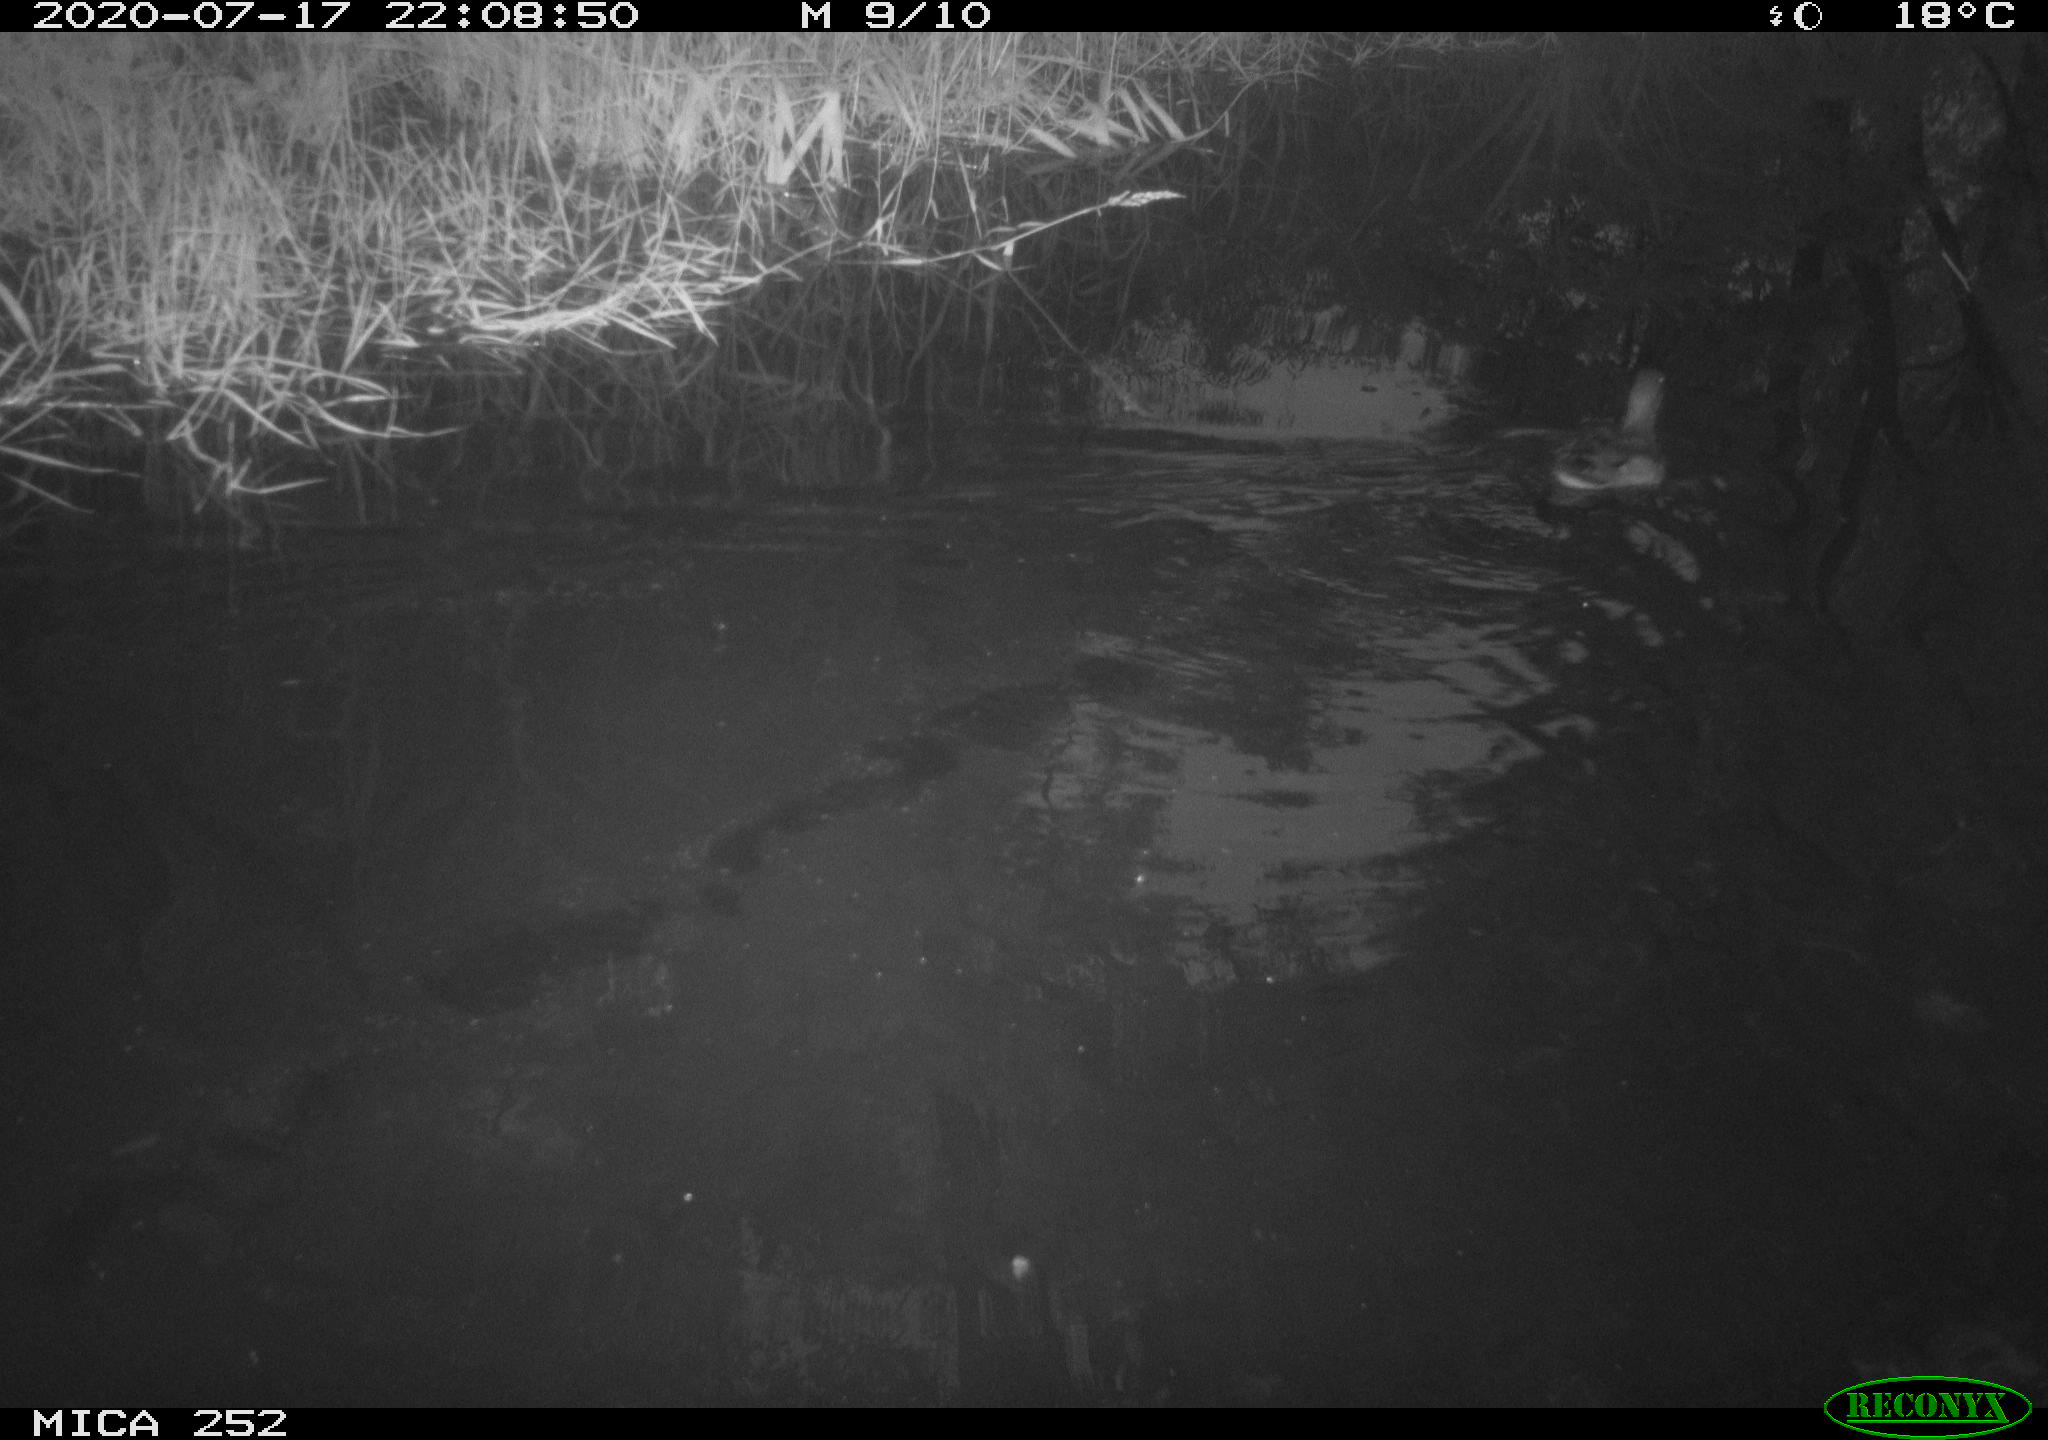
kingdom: Animalia
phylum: Chordata
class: Aves
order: Anseriformes
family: Anatidae
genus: Aix
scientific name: Aix galericulata
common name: Mandarin duck
